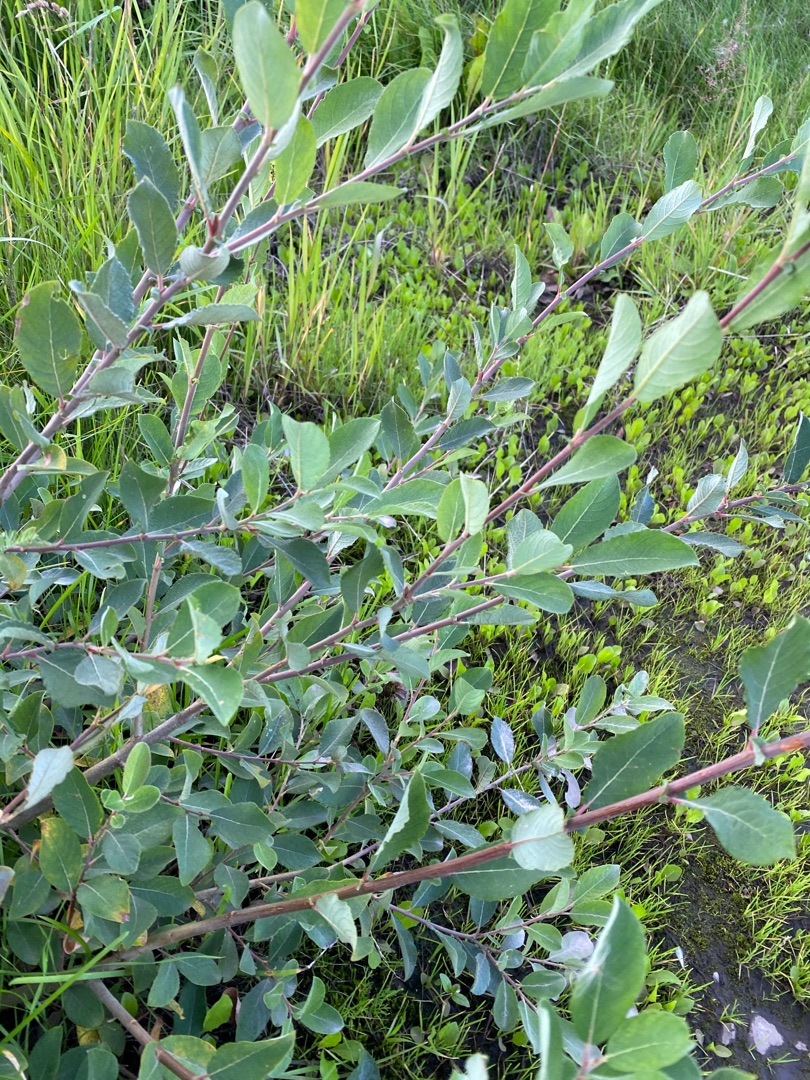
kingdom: Plantae
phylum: Tracheophyta
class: Magnoliopsida
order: Malpighiales
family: Salicaceae
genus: Salix
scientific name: Salix cinerea
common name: Grå-pil
